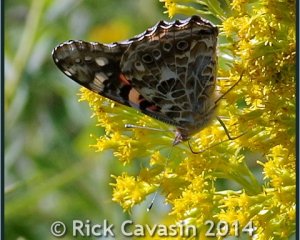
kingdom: Animalia
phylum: Arthropoda
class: Insecta
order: Lepidoptera
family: Nymphalidae
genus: Vanessa
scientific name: Vanessa cardui
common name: Painted Lady
